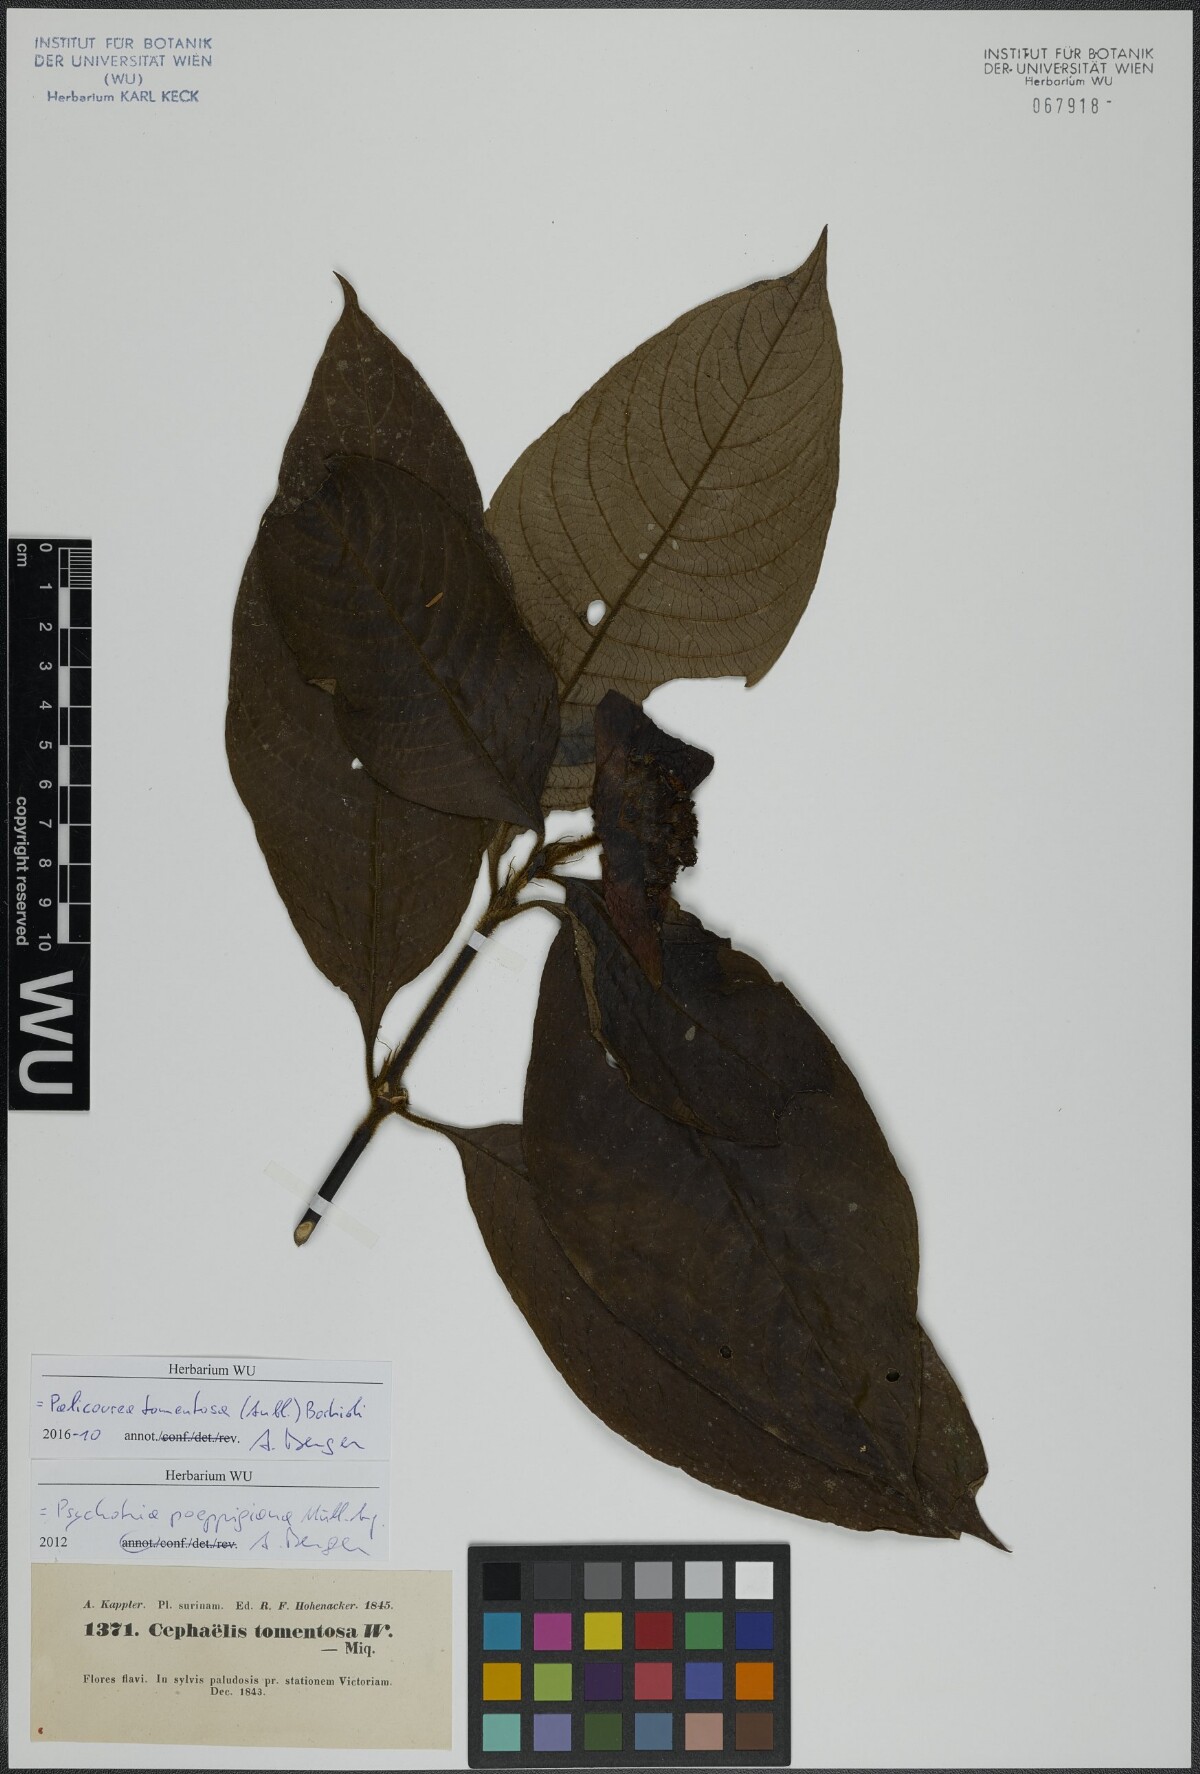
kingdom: Plantae
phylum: Tracheophyta
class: Magnoliopsida
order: Gentianales
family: Rubiaceae
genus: Palicourea
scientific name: Palicourea tomentosa
